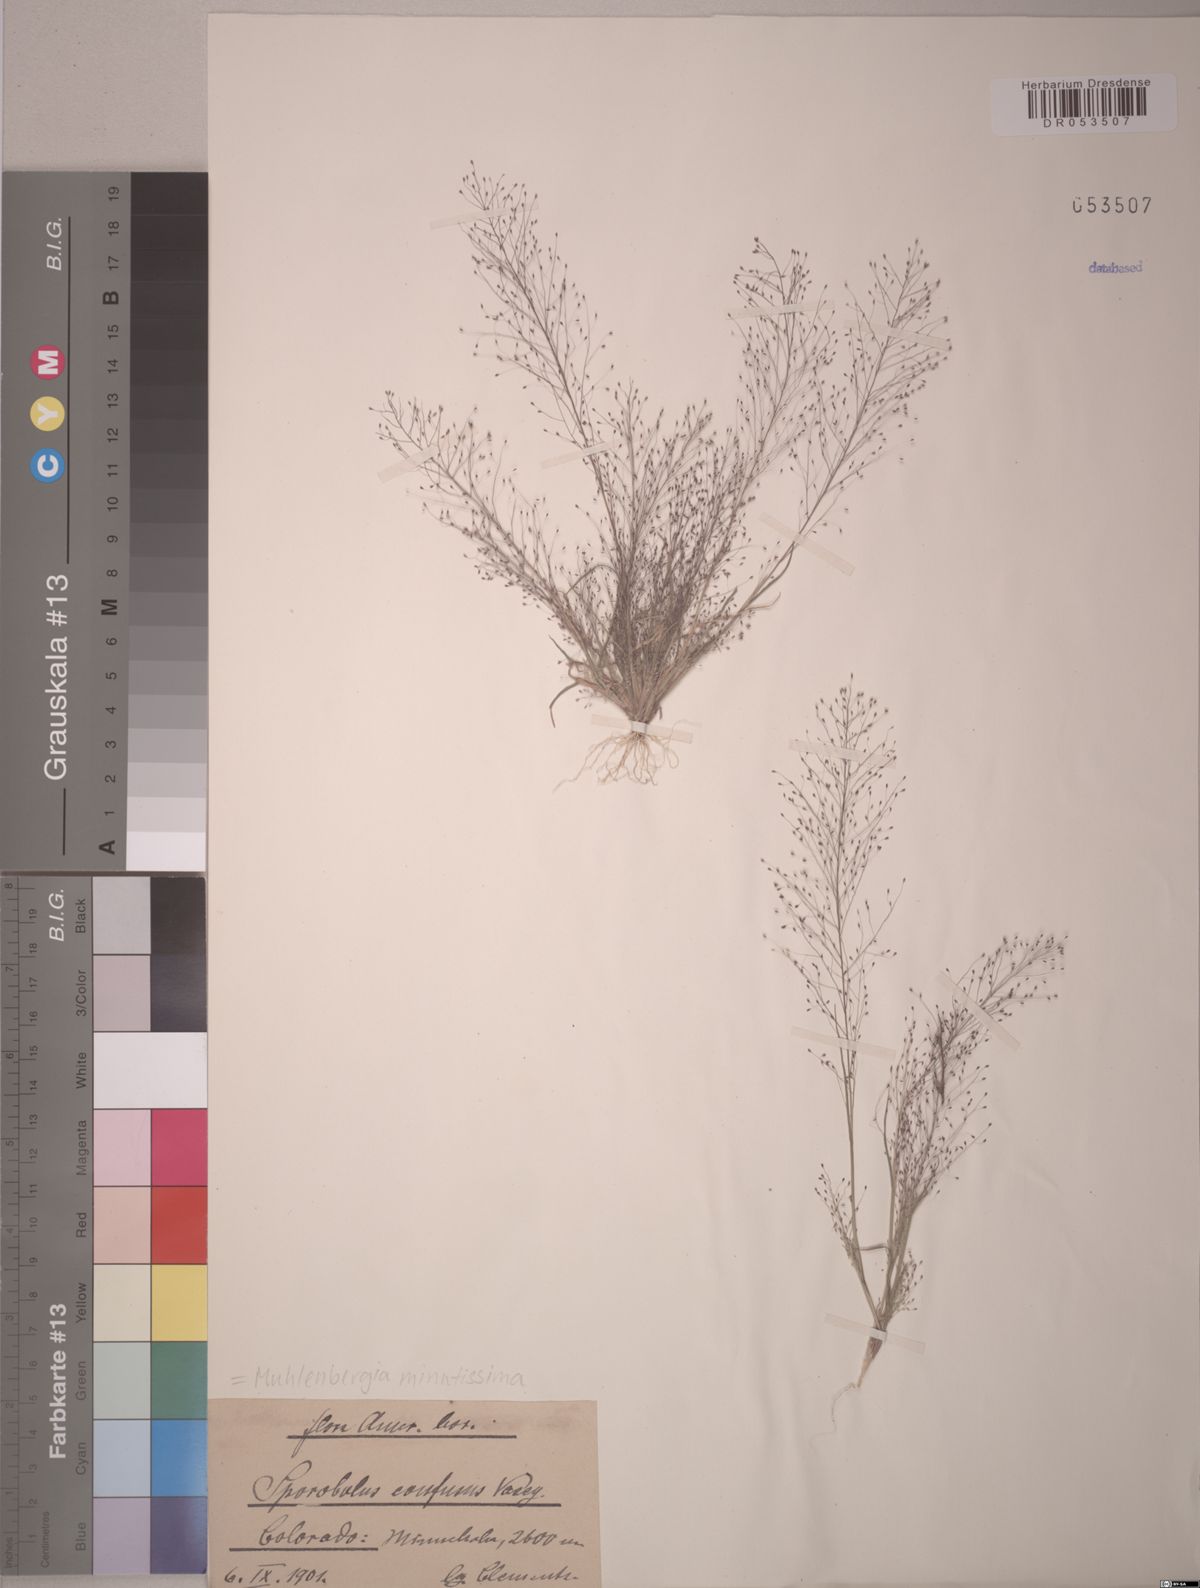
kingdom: Plantae
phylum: Tracheophyta
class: Liliopsida
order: Poales
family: Poaceae
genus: Muhlenbergia
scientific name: Muhlenbergia minutissima
